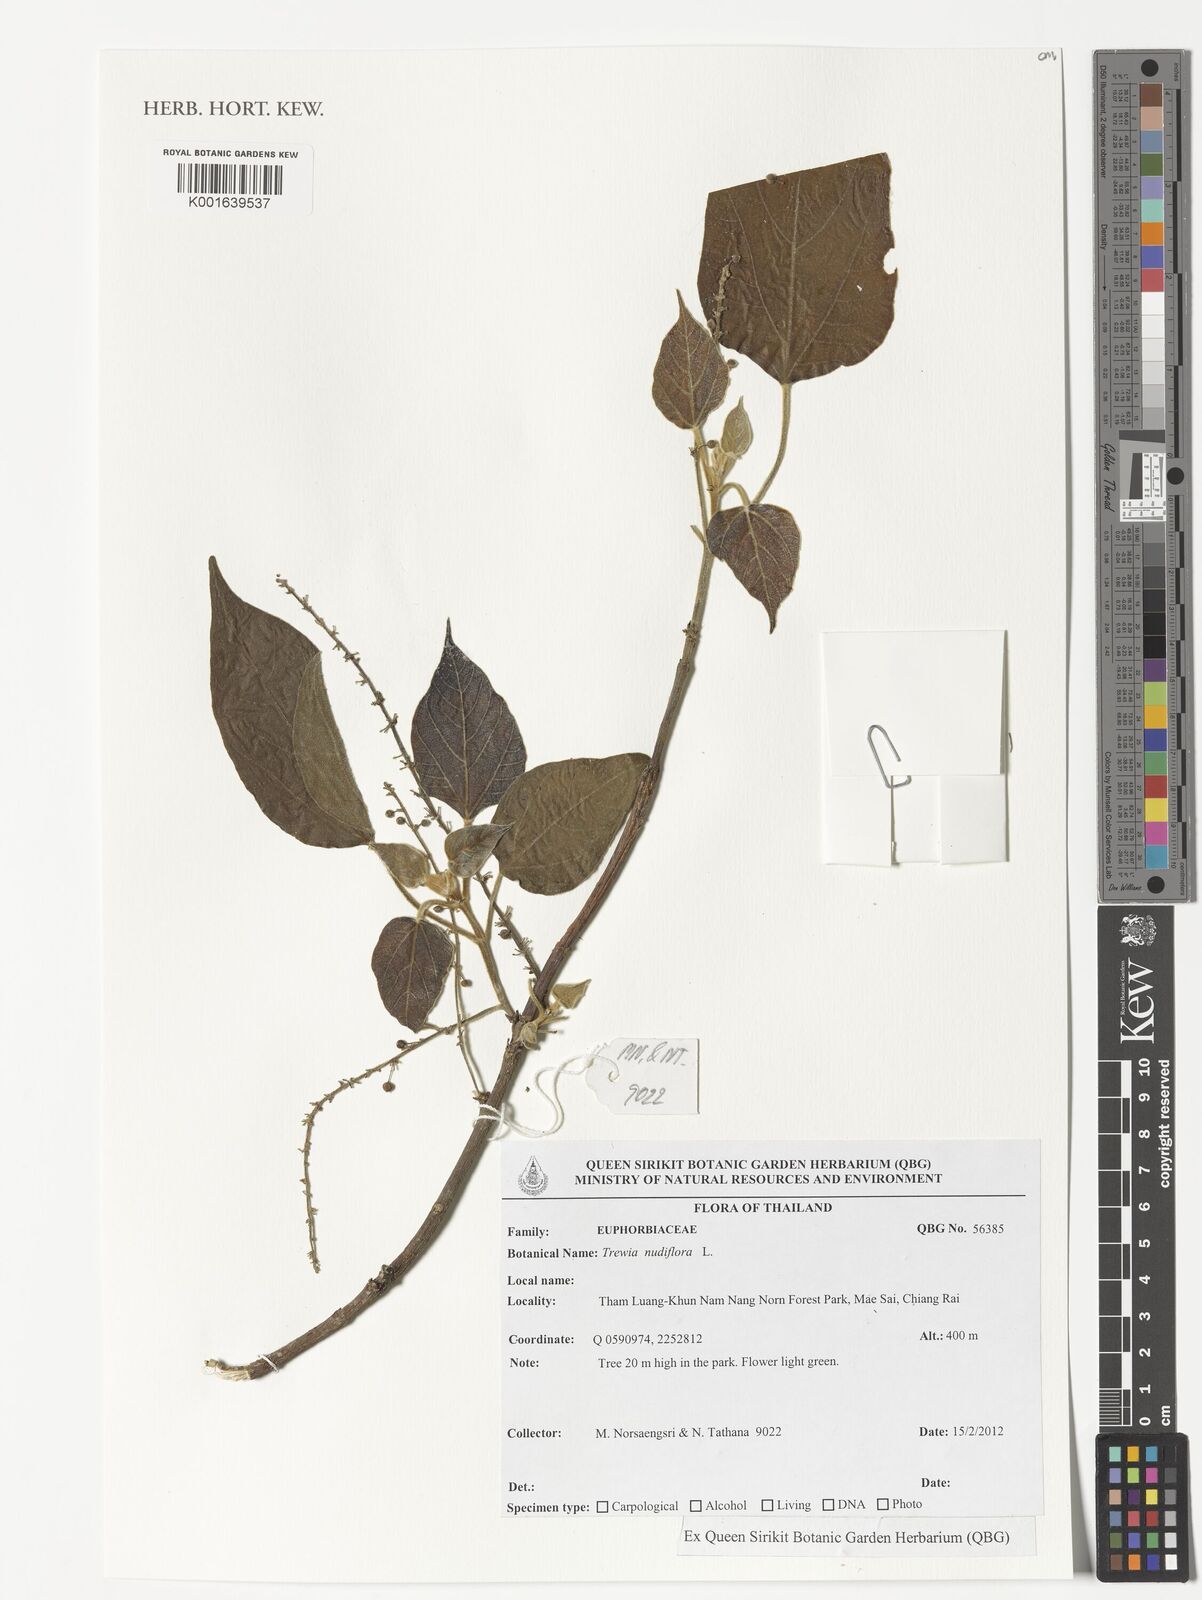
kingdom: Plantae
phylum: Tracheophyta
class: Magnoliopsida
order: Malpighiales
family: Euphorbiaceae
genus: Mallotus
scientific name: Mallotus nudiflorus
